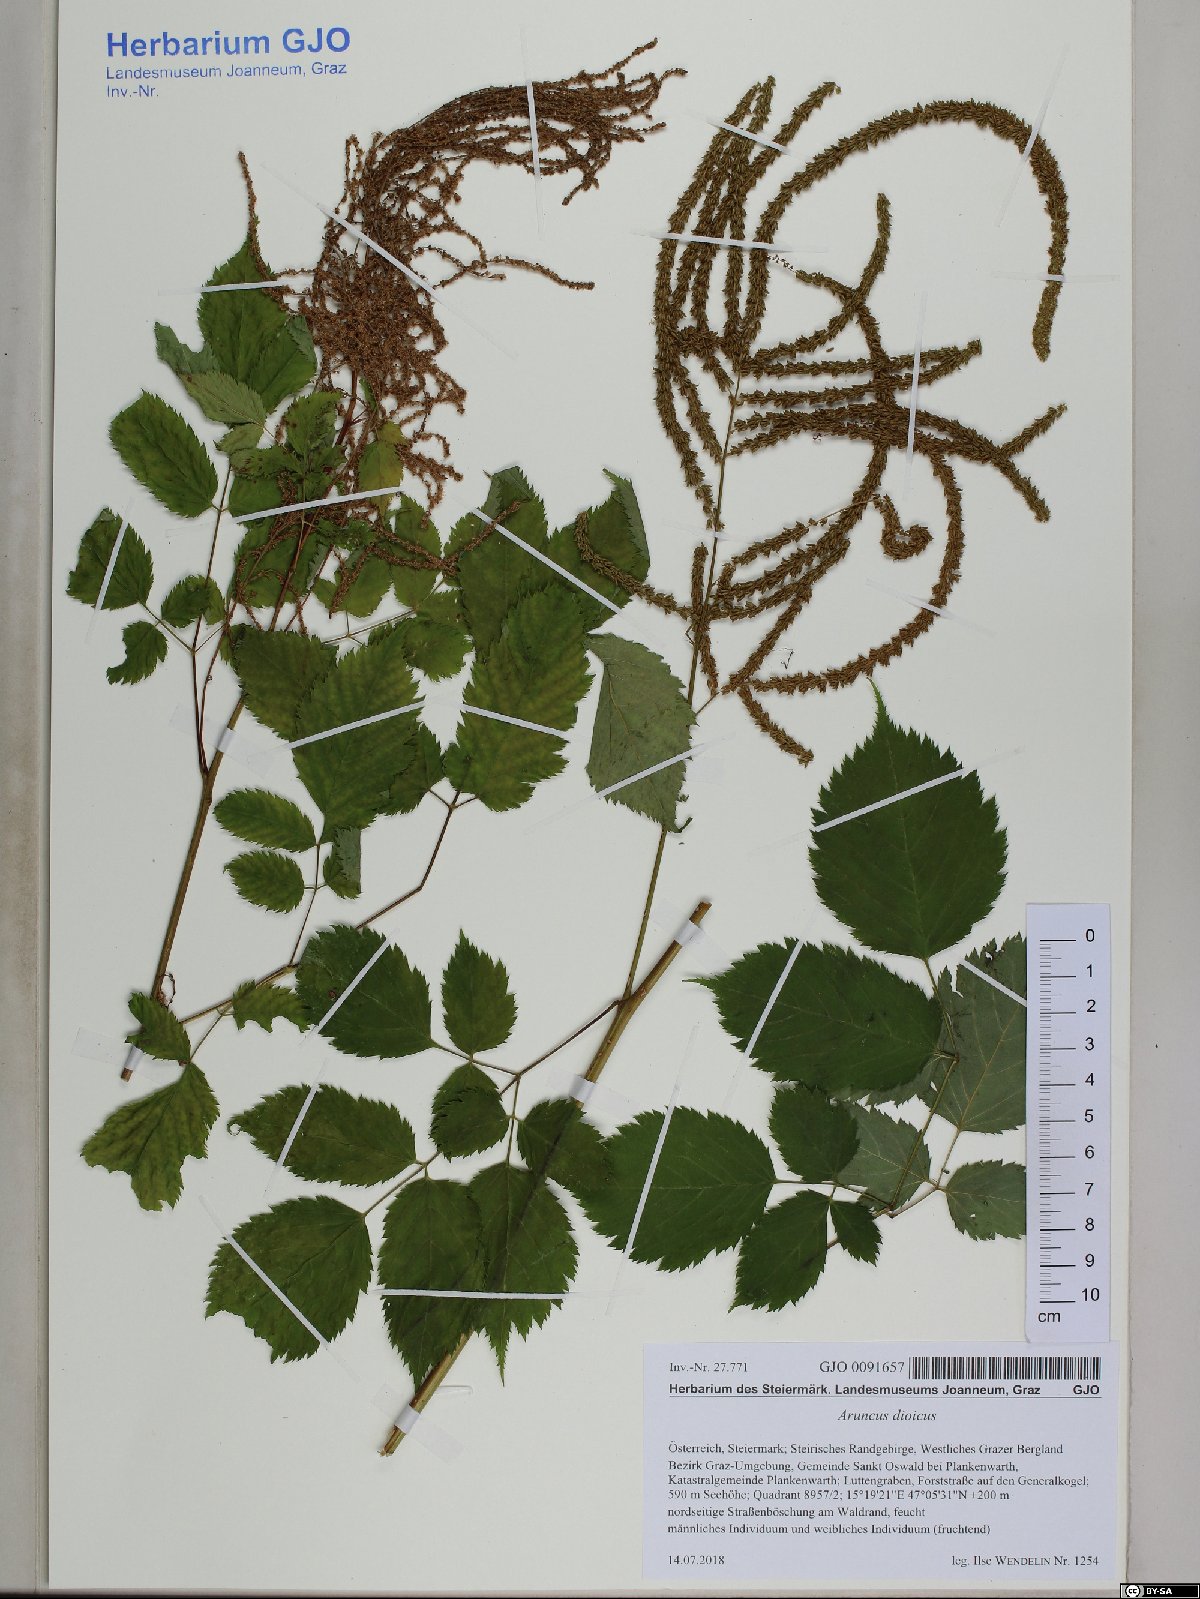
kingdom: Plantae
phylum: Tracheophyta
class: Magnoliopsida
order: Rosales
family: Rosaceae
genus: Aruncus
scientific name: Aruncus dioicus
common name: Buck's-beard
